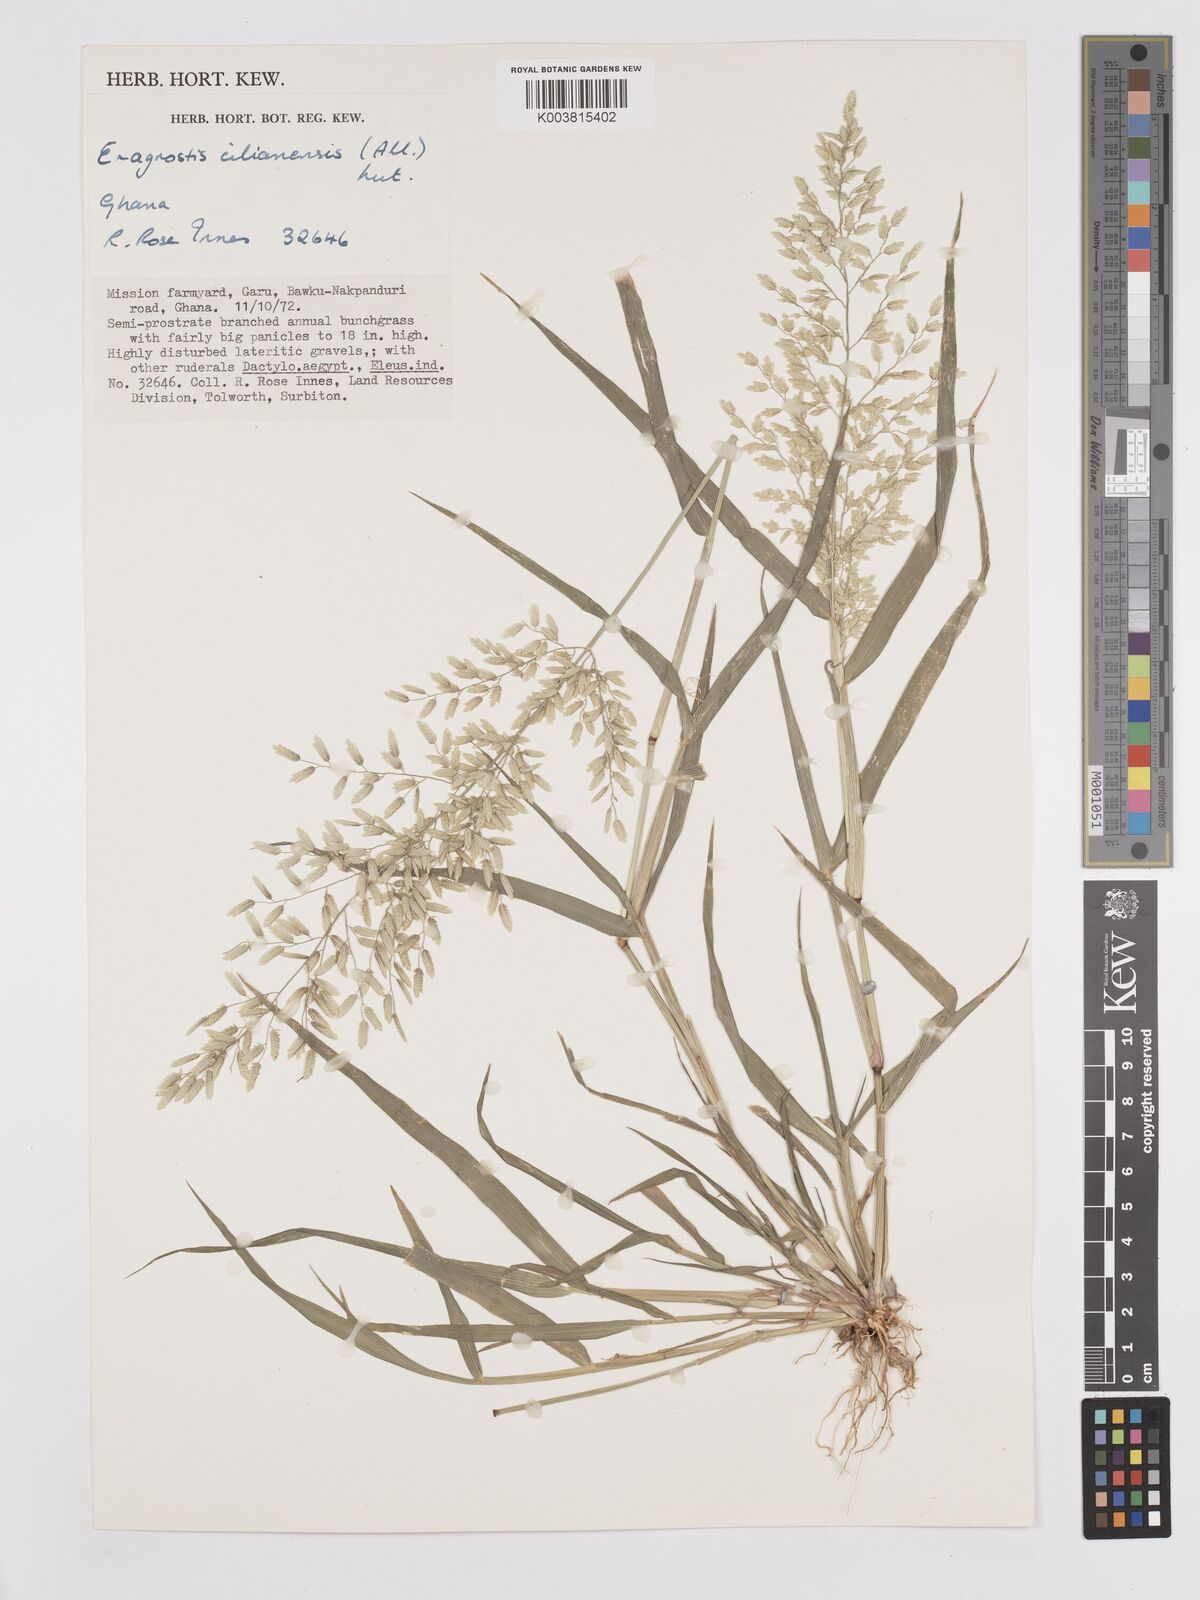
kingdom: Plantae
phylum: Tracheophyta
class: Liliopsida
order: Poales
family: Poaceae
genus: Eragrostis
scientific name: Eragrostis cilianensis
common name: Stinkgrass
